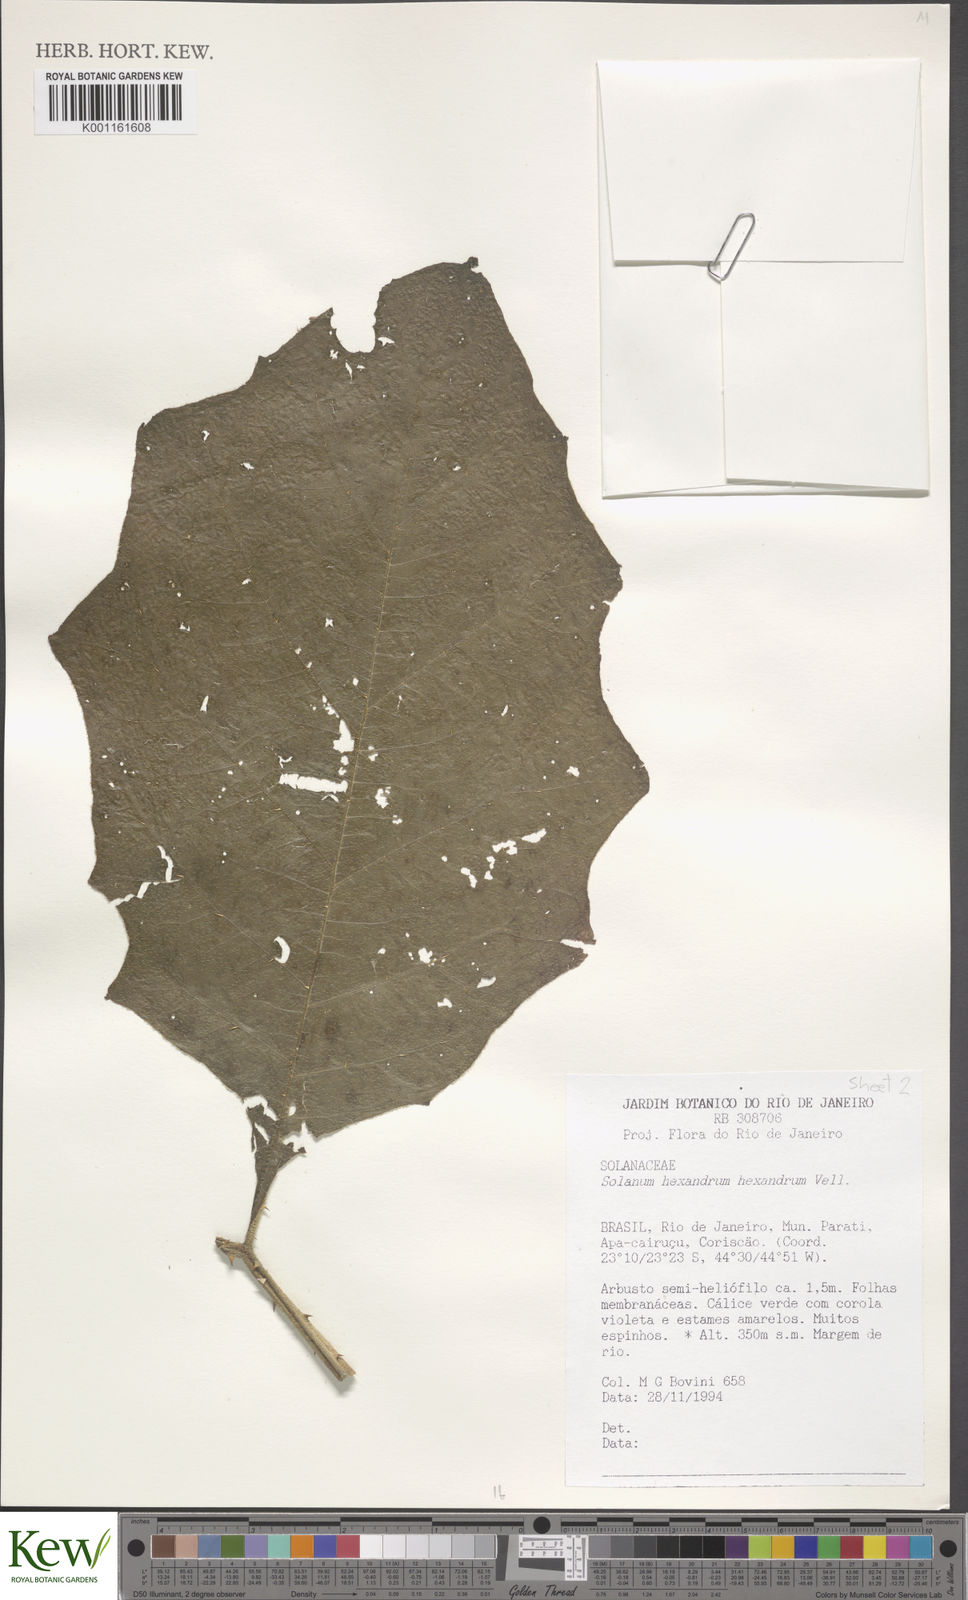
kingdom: Plantae
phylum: Tracheophyta
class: Magnoliopsida
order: Solanales
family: Solanaceae
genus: Solanum
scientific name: Solanum hexandrum
